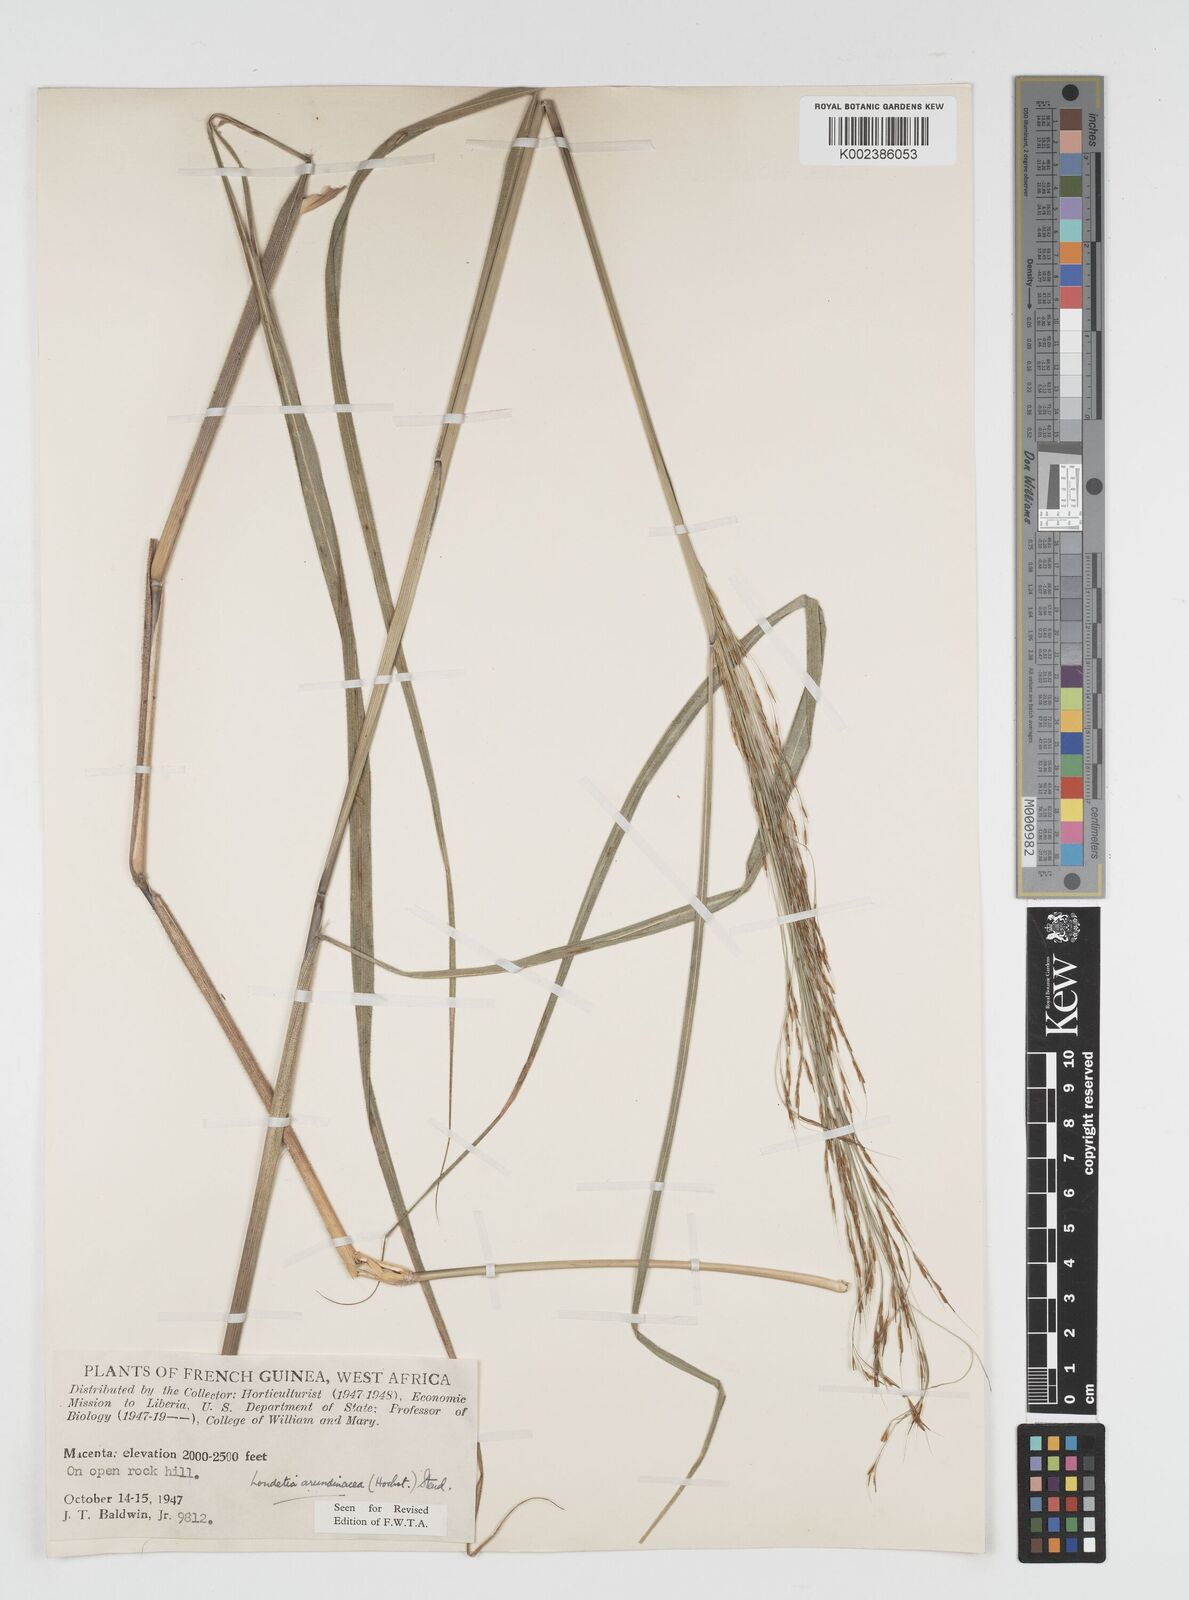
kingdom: Plantae
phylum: Tracheophyta
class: Liliopsida
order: Poales
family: Poaceae
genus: Loudetia
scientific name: Loudetia arundinacea
